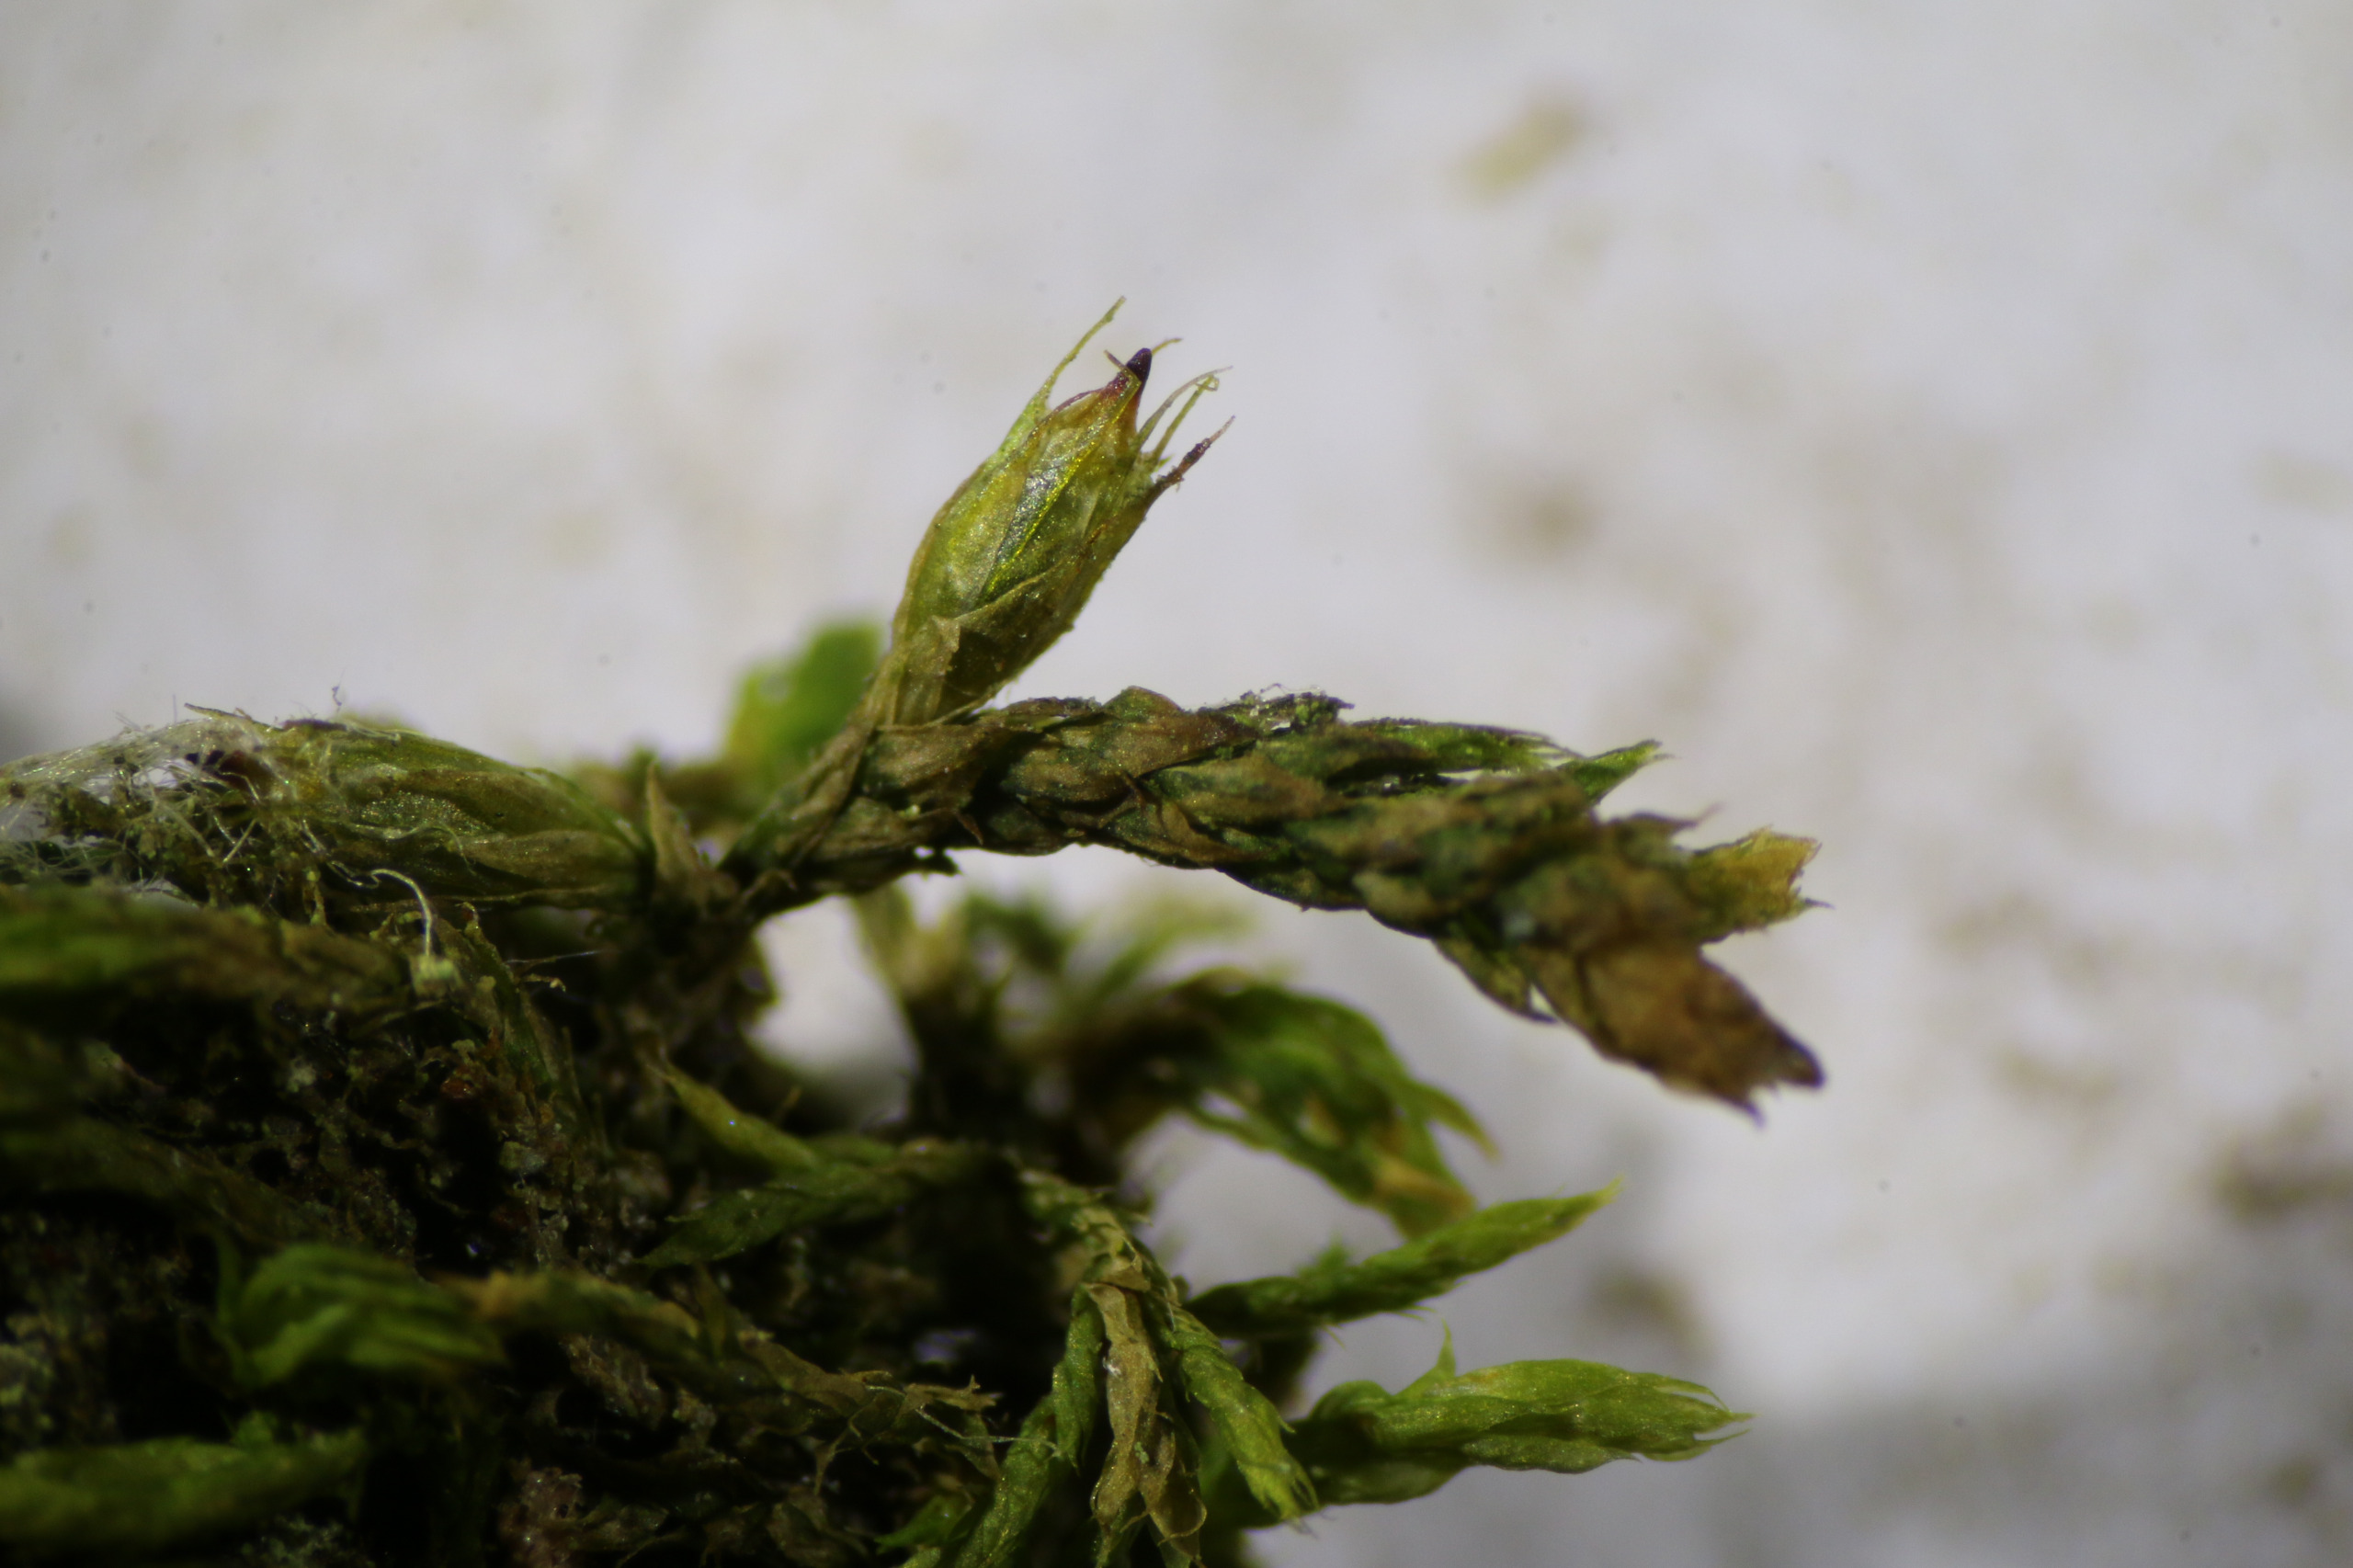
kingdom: Plantae
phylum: Bryophyta
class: Bryopsida
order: Hypnales
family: Cryphaeaceae
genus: Cryphaea
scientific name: Cryphaea heteromalla
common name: Bark-dækmos
